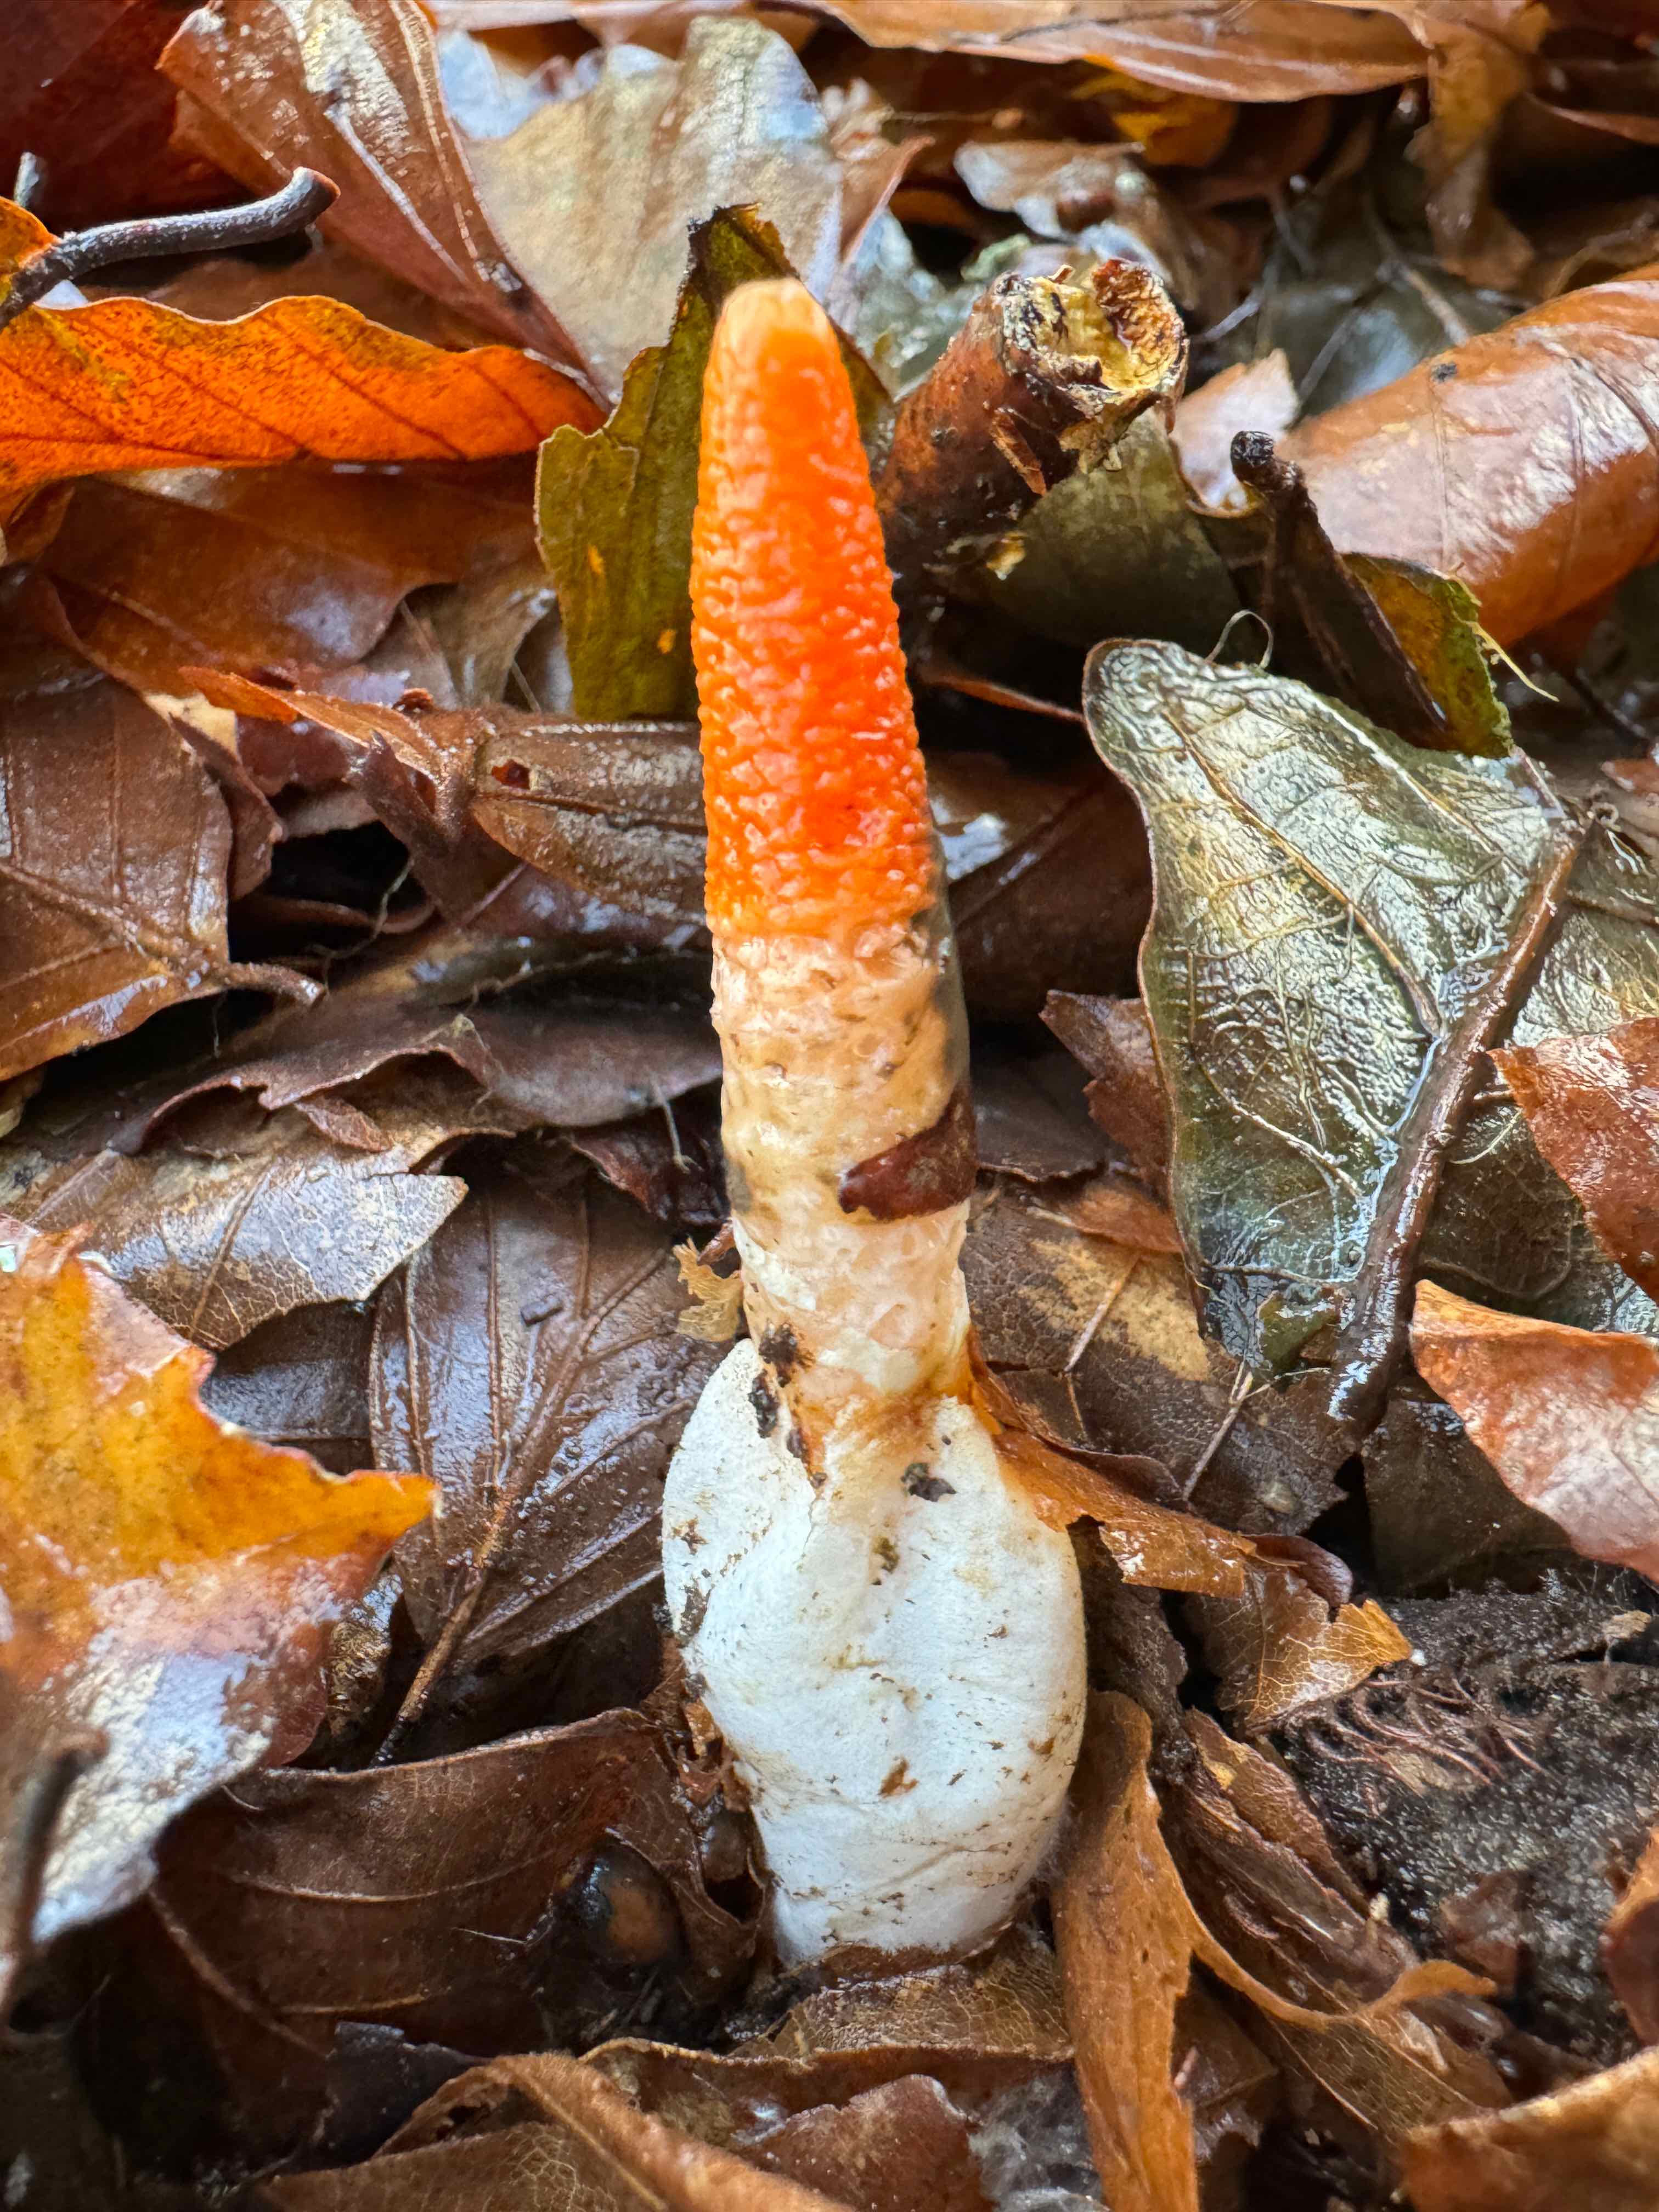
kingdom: Fungi
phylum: Basidiomycota
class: Agaricomycetes
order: Phallales
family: Phallaceae
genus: Mutinus
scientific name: Mutinus caninus
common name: hunde-stinksvamp
